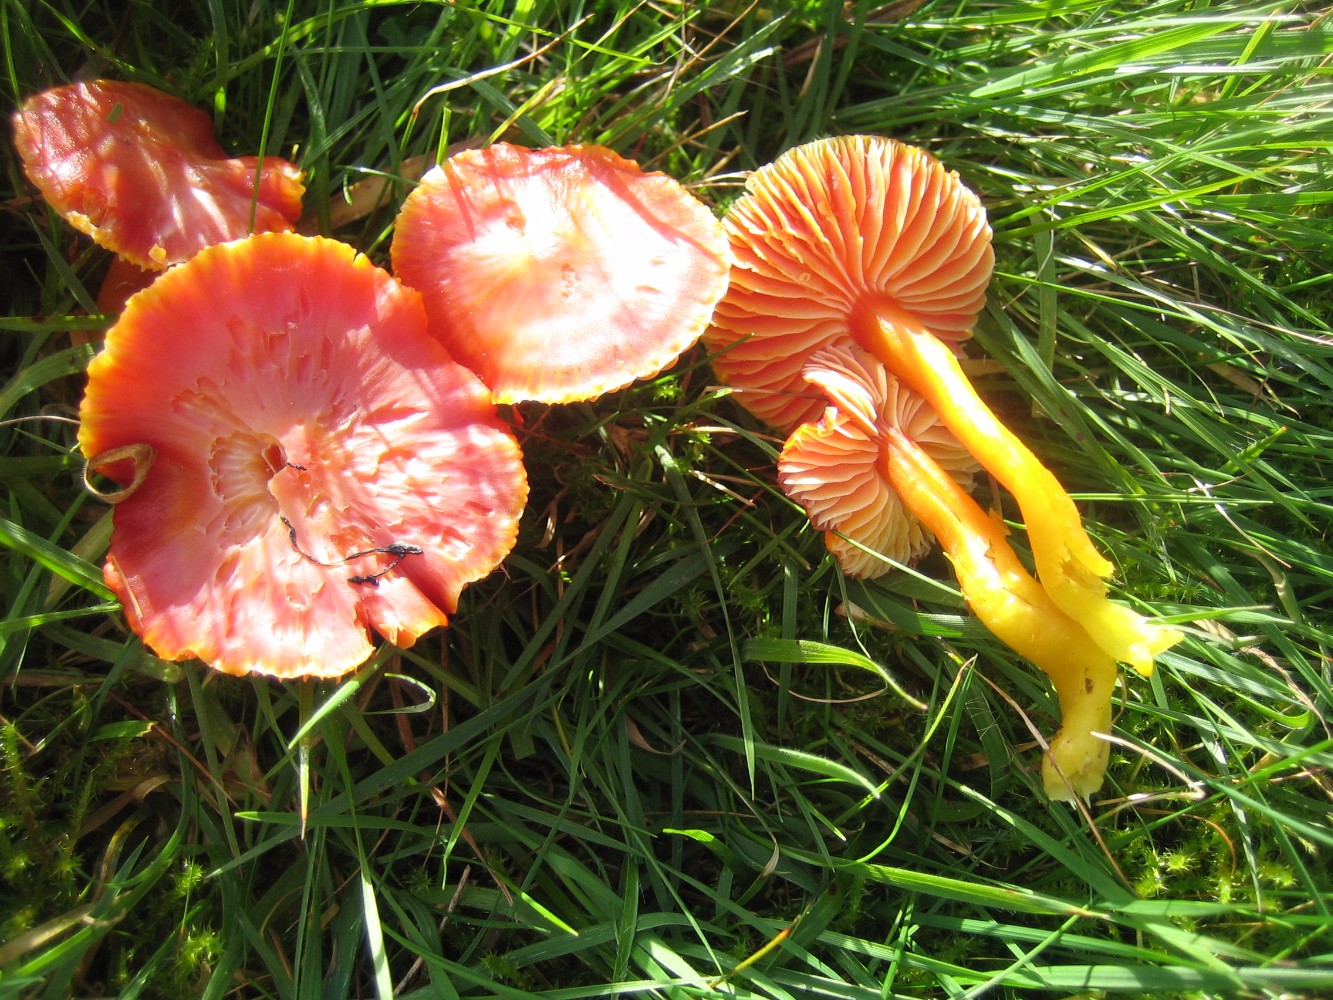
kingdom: Fungi
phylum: Basidiomycota
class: Agaricomycetes
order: Agaricales
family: Hygrophoraceae
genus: Hygrocybe
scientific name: Hygrocybe coccinea
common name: cinnober-vokshat
